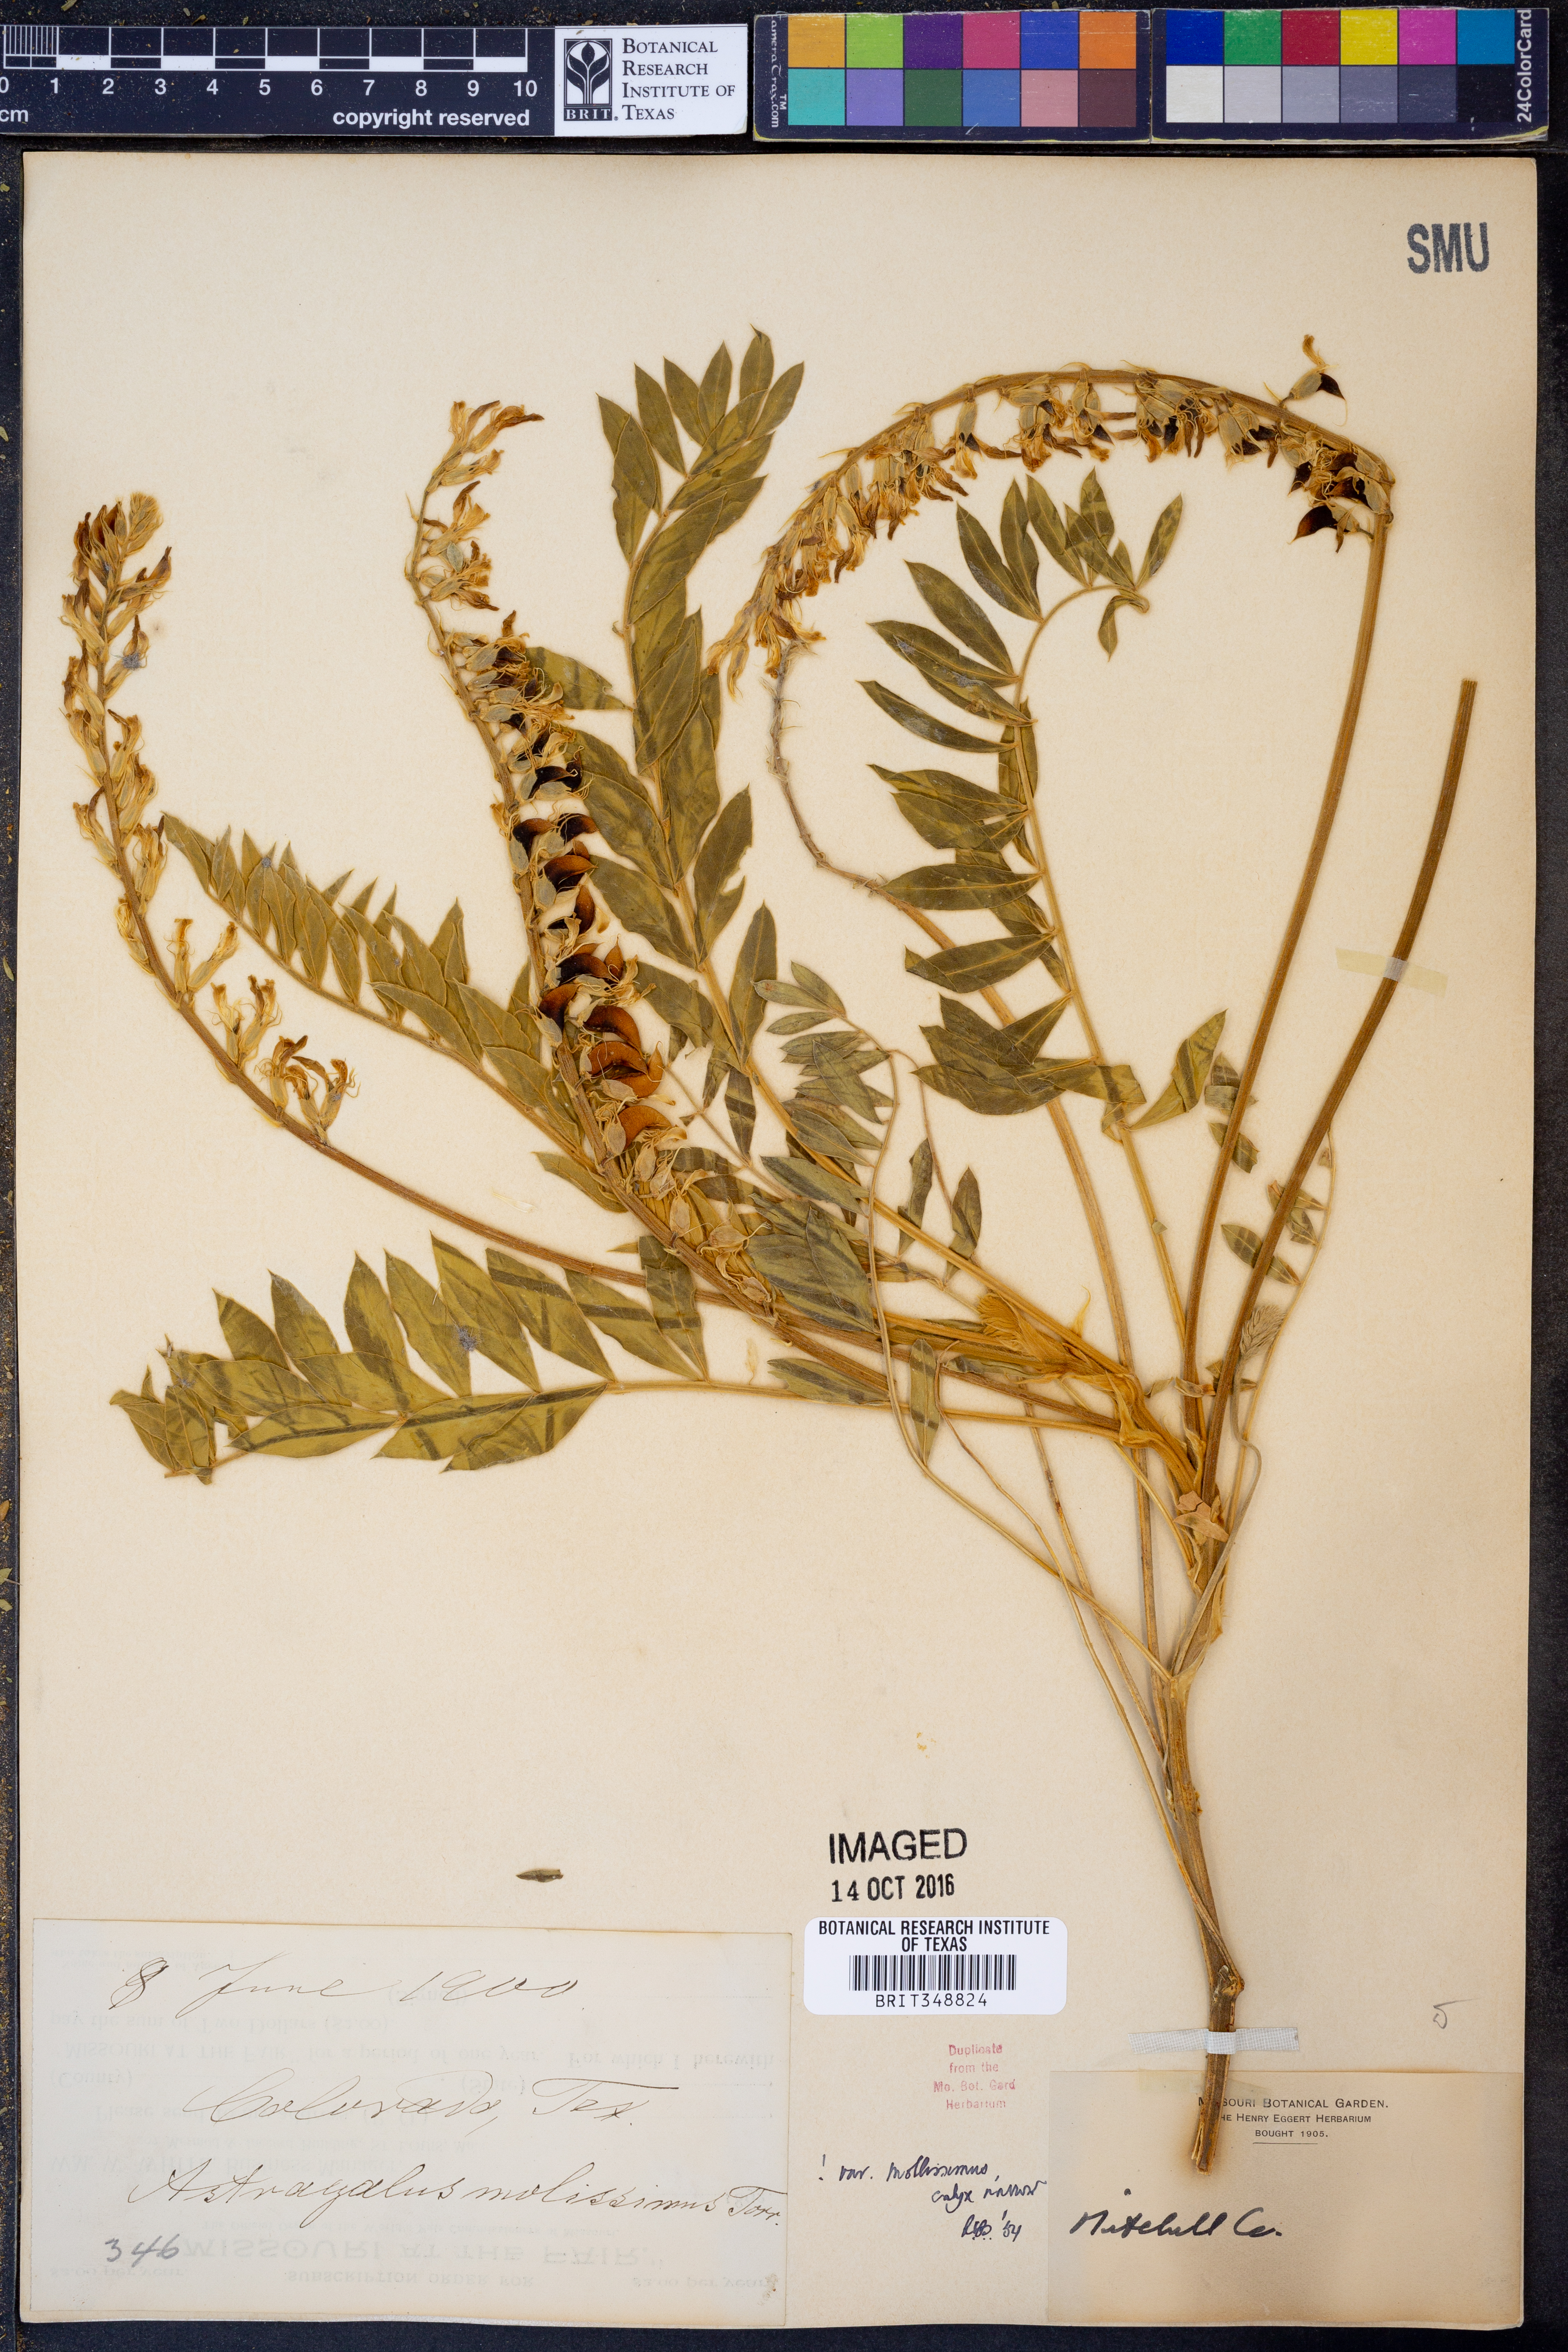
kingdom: Plantae
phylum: Tracheophyta
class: Magnoliopsida
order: Fabales
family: Fabaceae
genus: Astragalus
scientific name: Astragalus mollissimus
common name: Woolly locoweed
